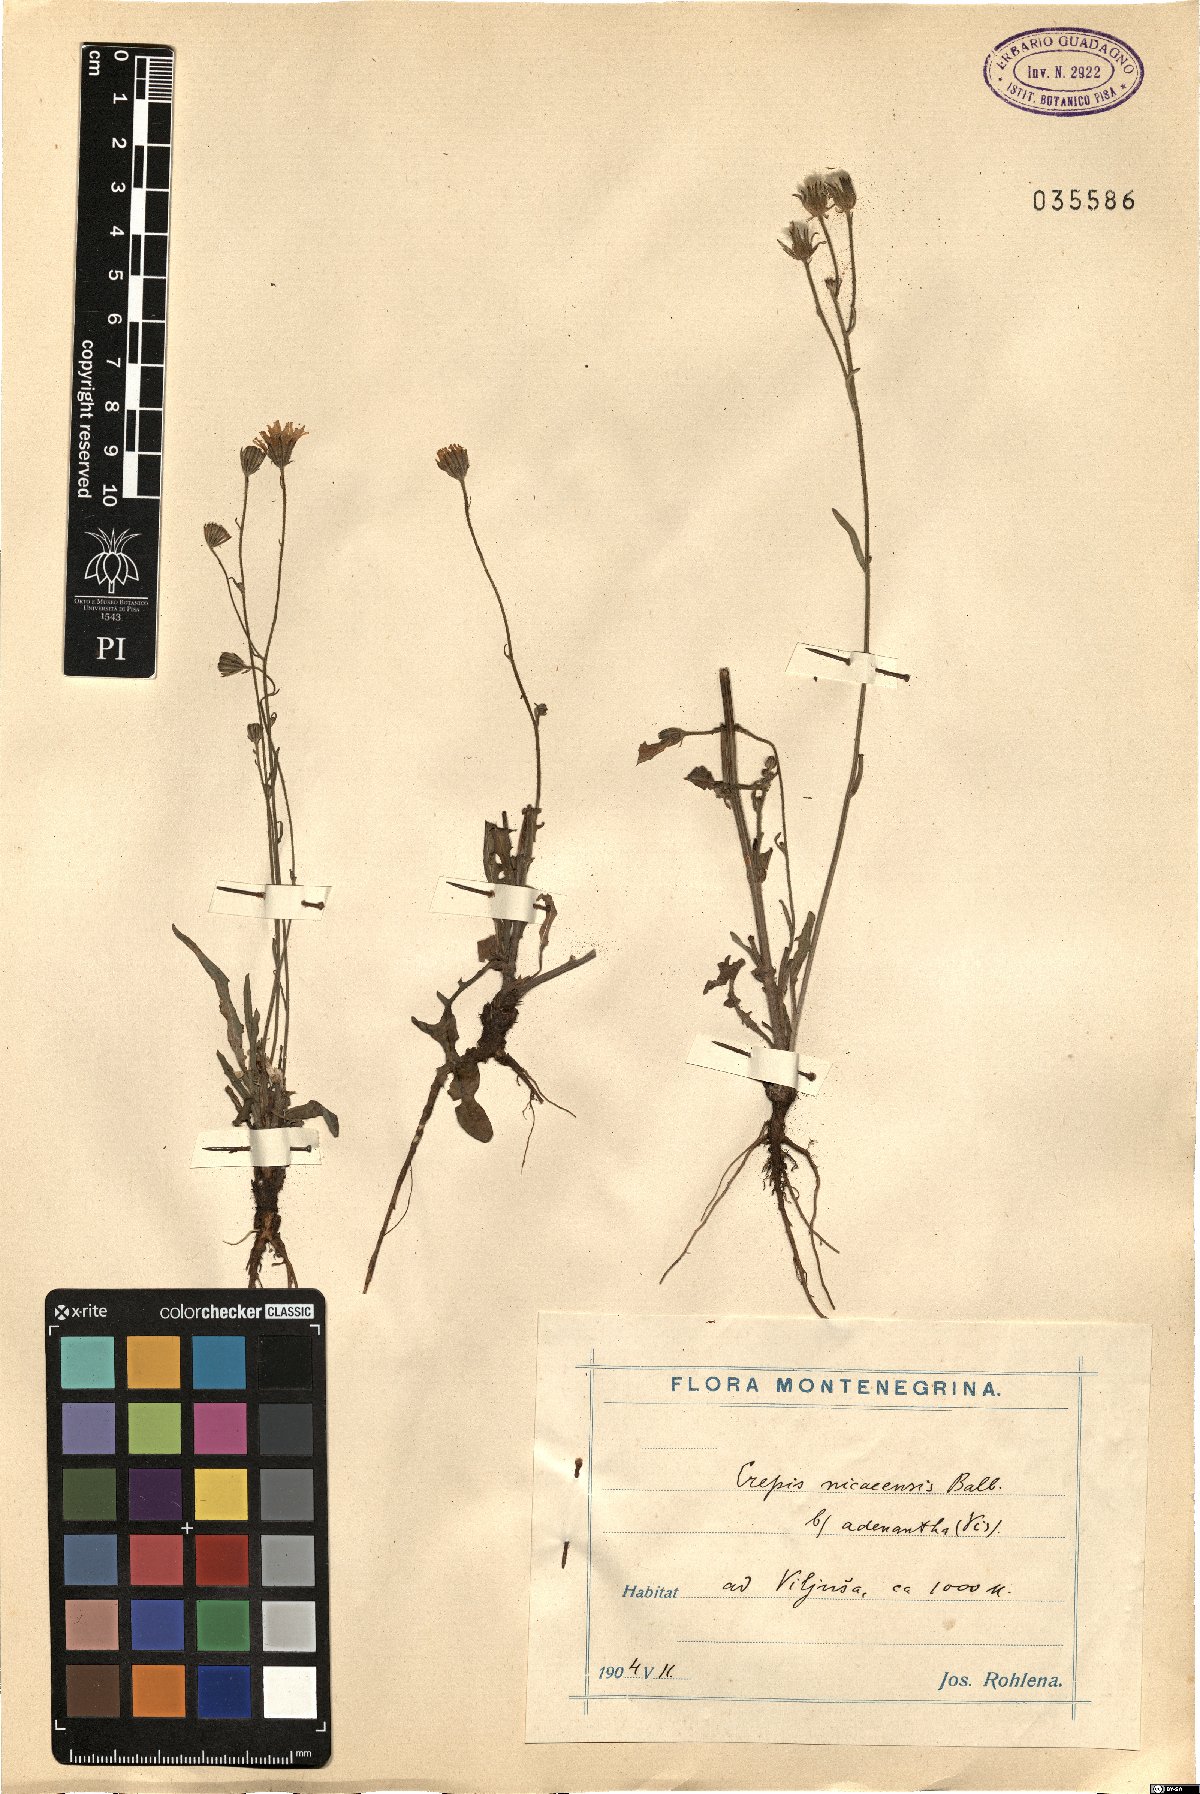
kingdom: Plantae
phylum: Tracheophyta
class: Magnoliopsida
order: Asterales
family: Asteraceae
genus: Crepis
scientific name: Crepis nicaeensis
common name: Turkish hawksbeard
